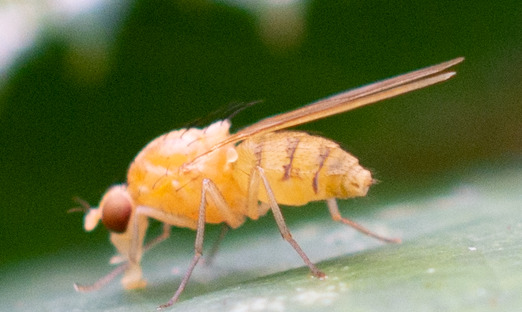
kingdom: Animalia
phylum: Arthropoda
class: Insecta
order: Diptera
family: Lauxaniidae
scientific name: Lauxaniidae
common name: Løvfluer
